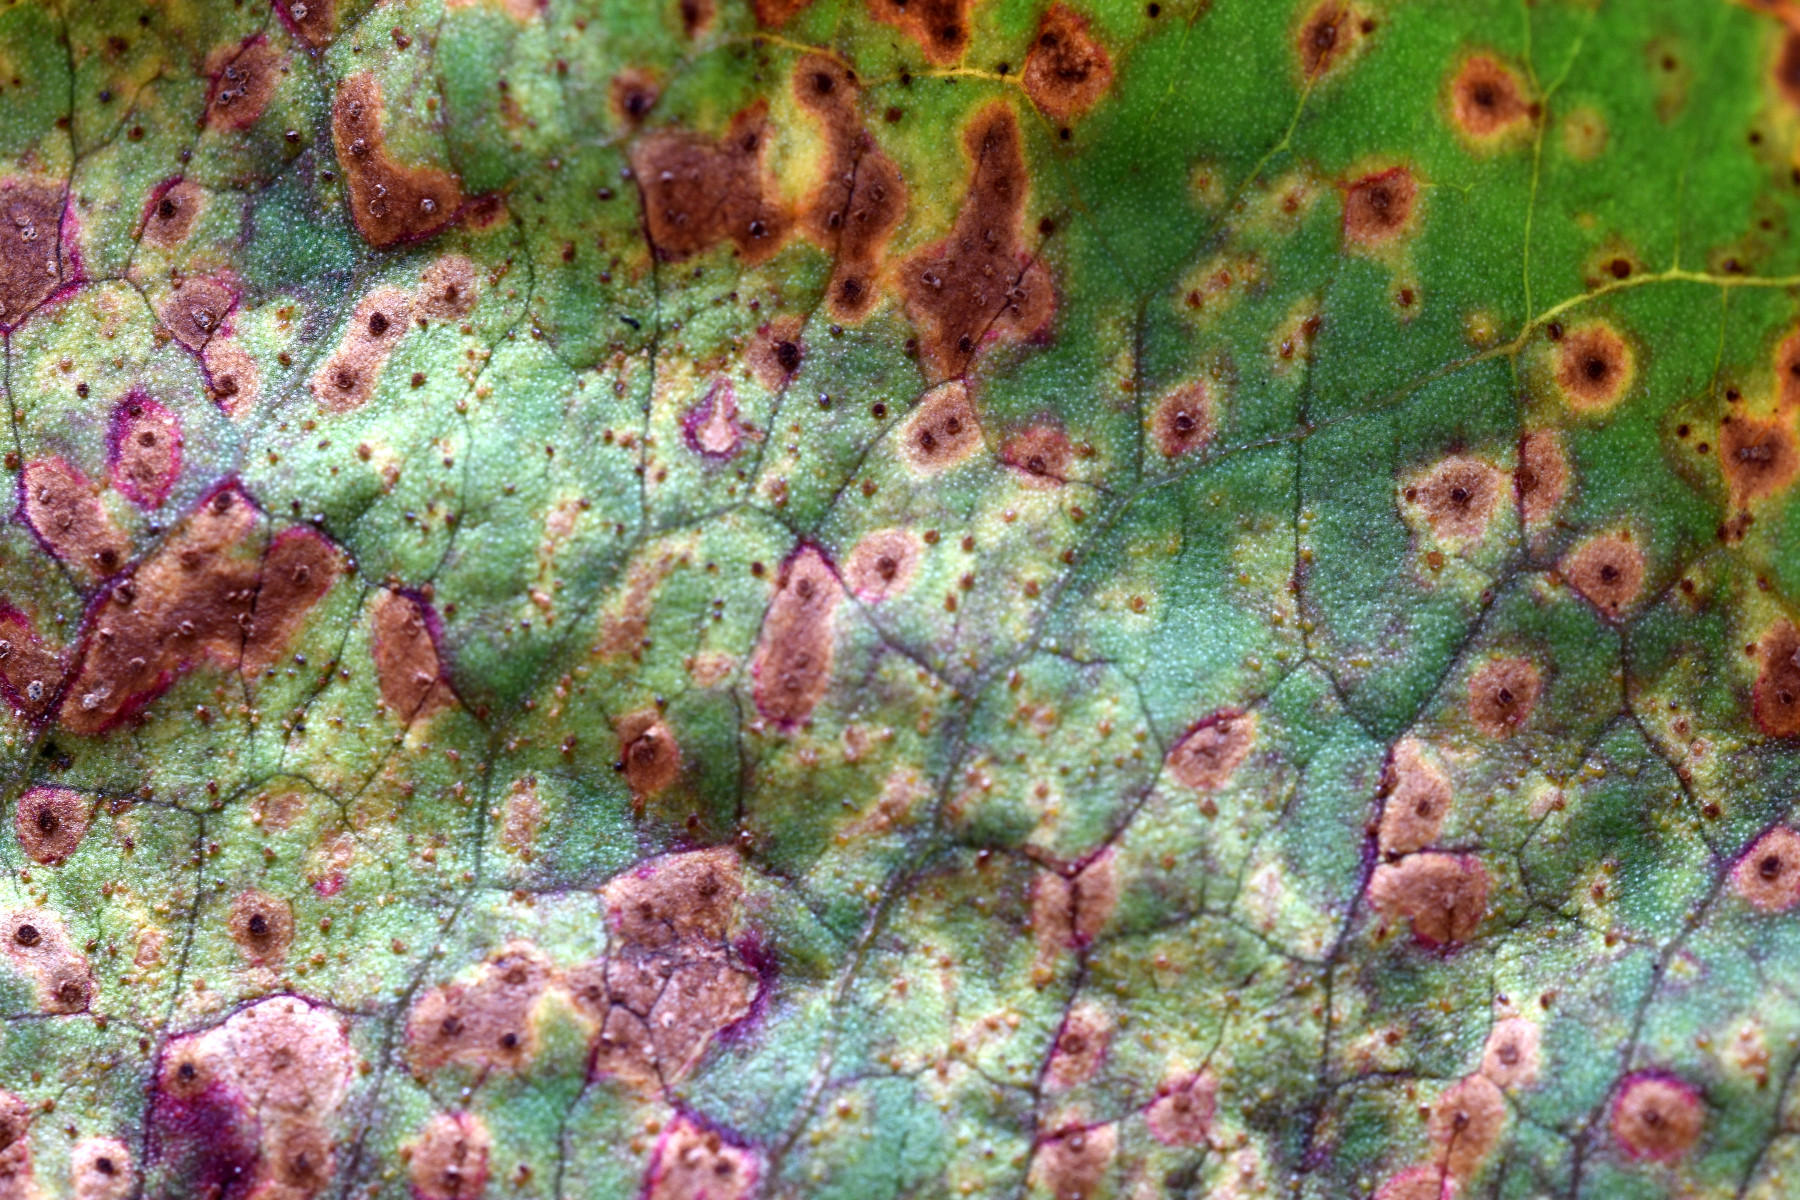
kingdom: Fungi
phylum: Basidiomycota
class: Pucciniomycetes
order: Pucciniales
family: Pucciniaceae
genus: Uromyces
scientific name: Uromyces rumicis
